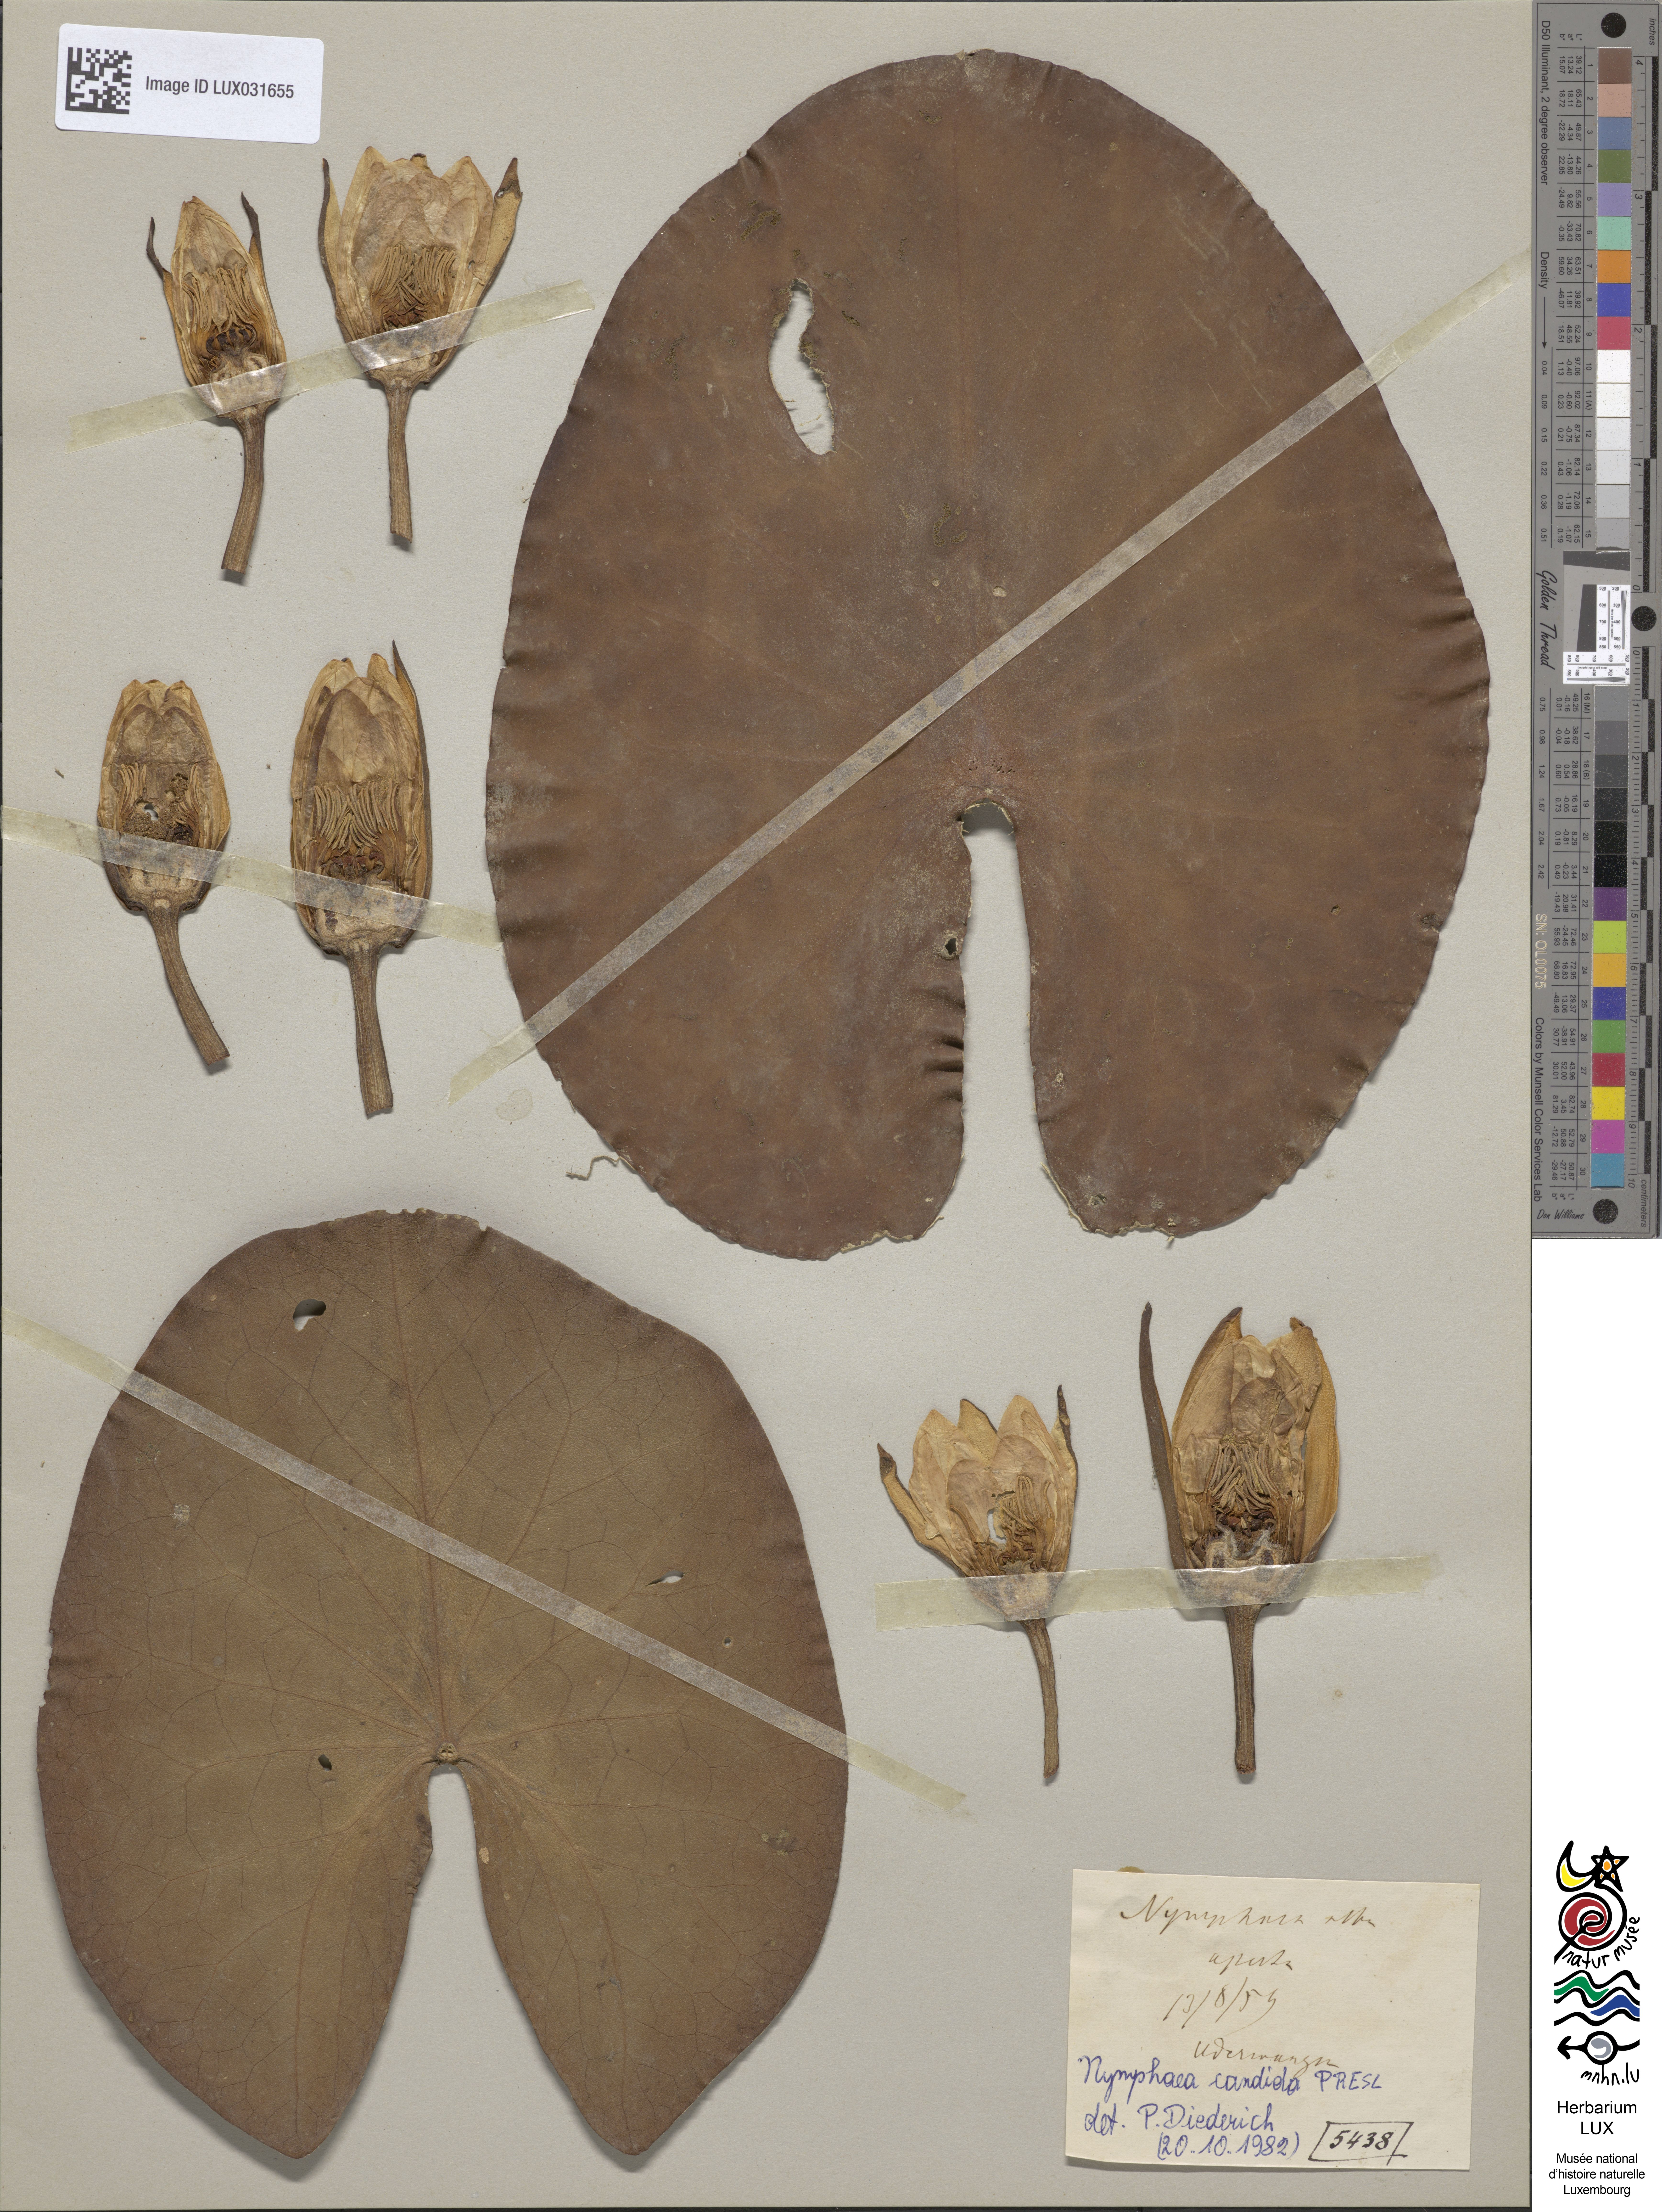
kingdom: Plantae
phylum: Tracheophyta
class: Magnoliopsida
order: Nymphaeales
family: Nymphaeaceae
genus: Nymphaea
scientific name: Nymphaea alba
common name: White water-lily
